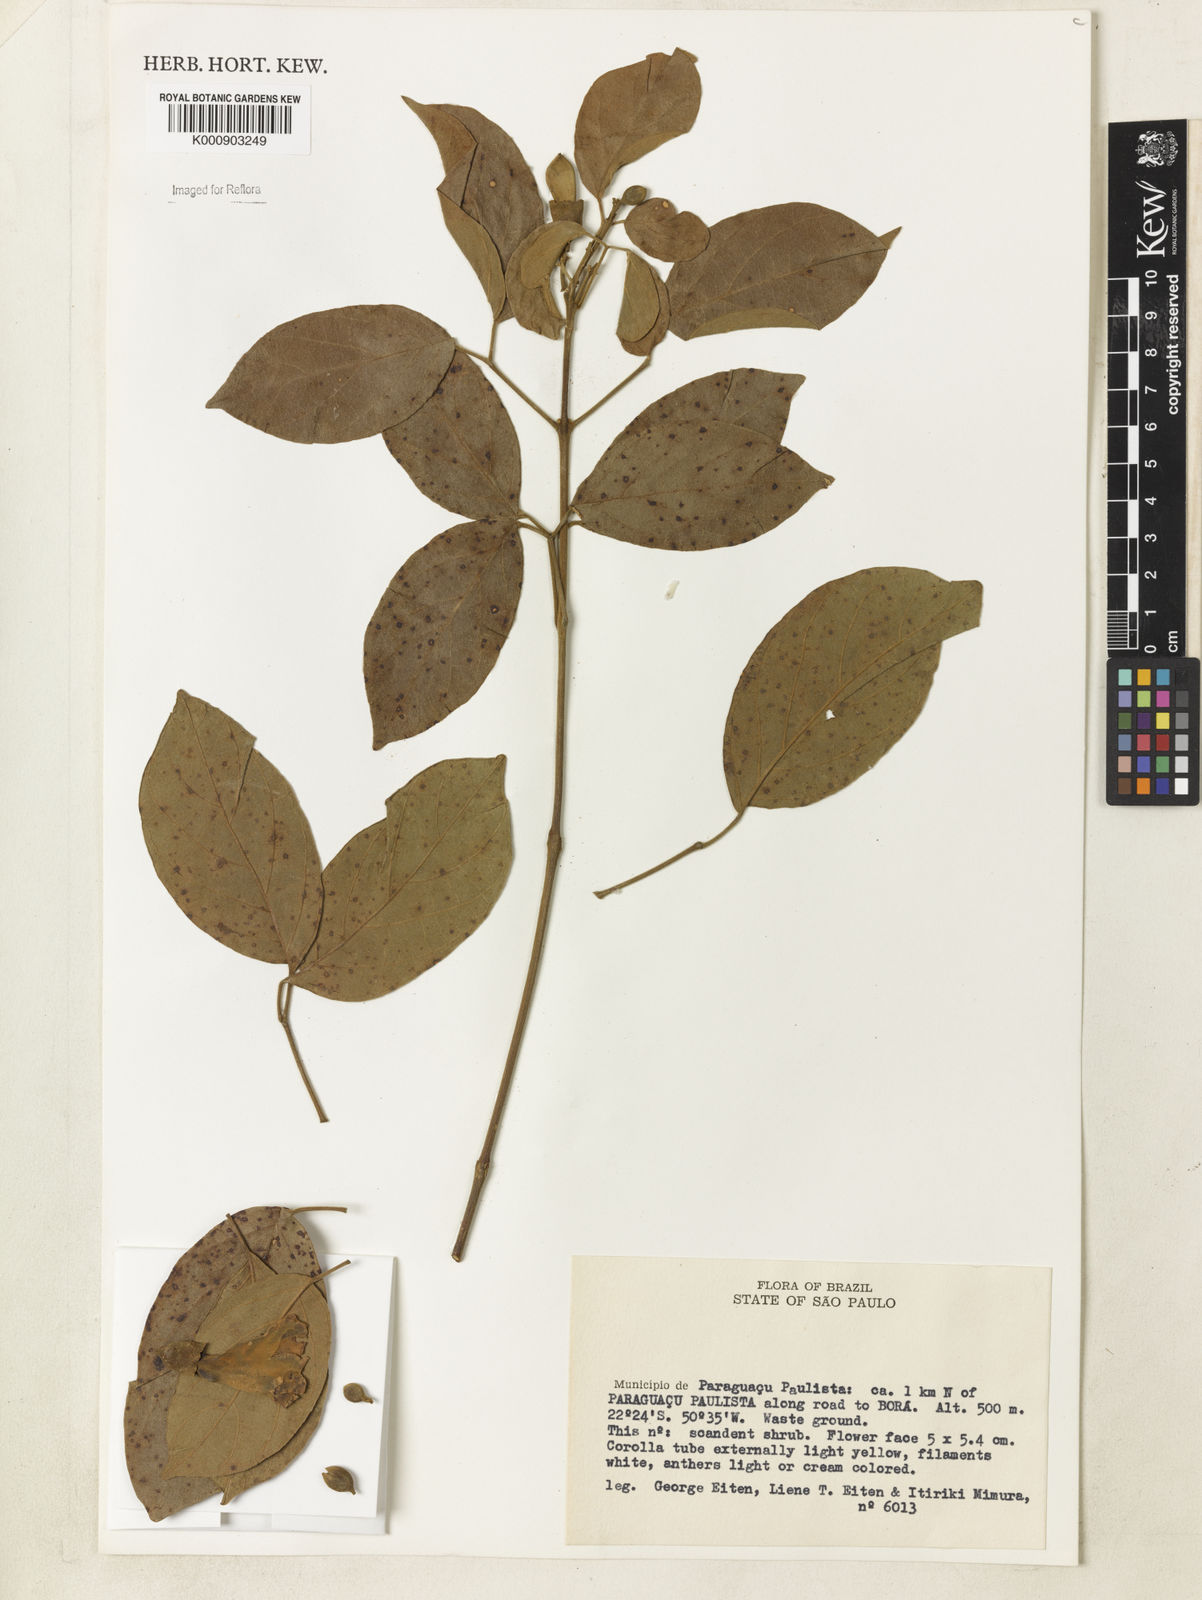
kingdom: Plantae
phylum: Tracheophyta
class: Magnoliopsida
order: Lamiales
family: Bignoniaceae
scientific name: Bignoniaceae
